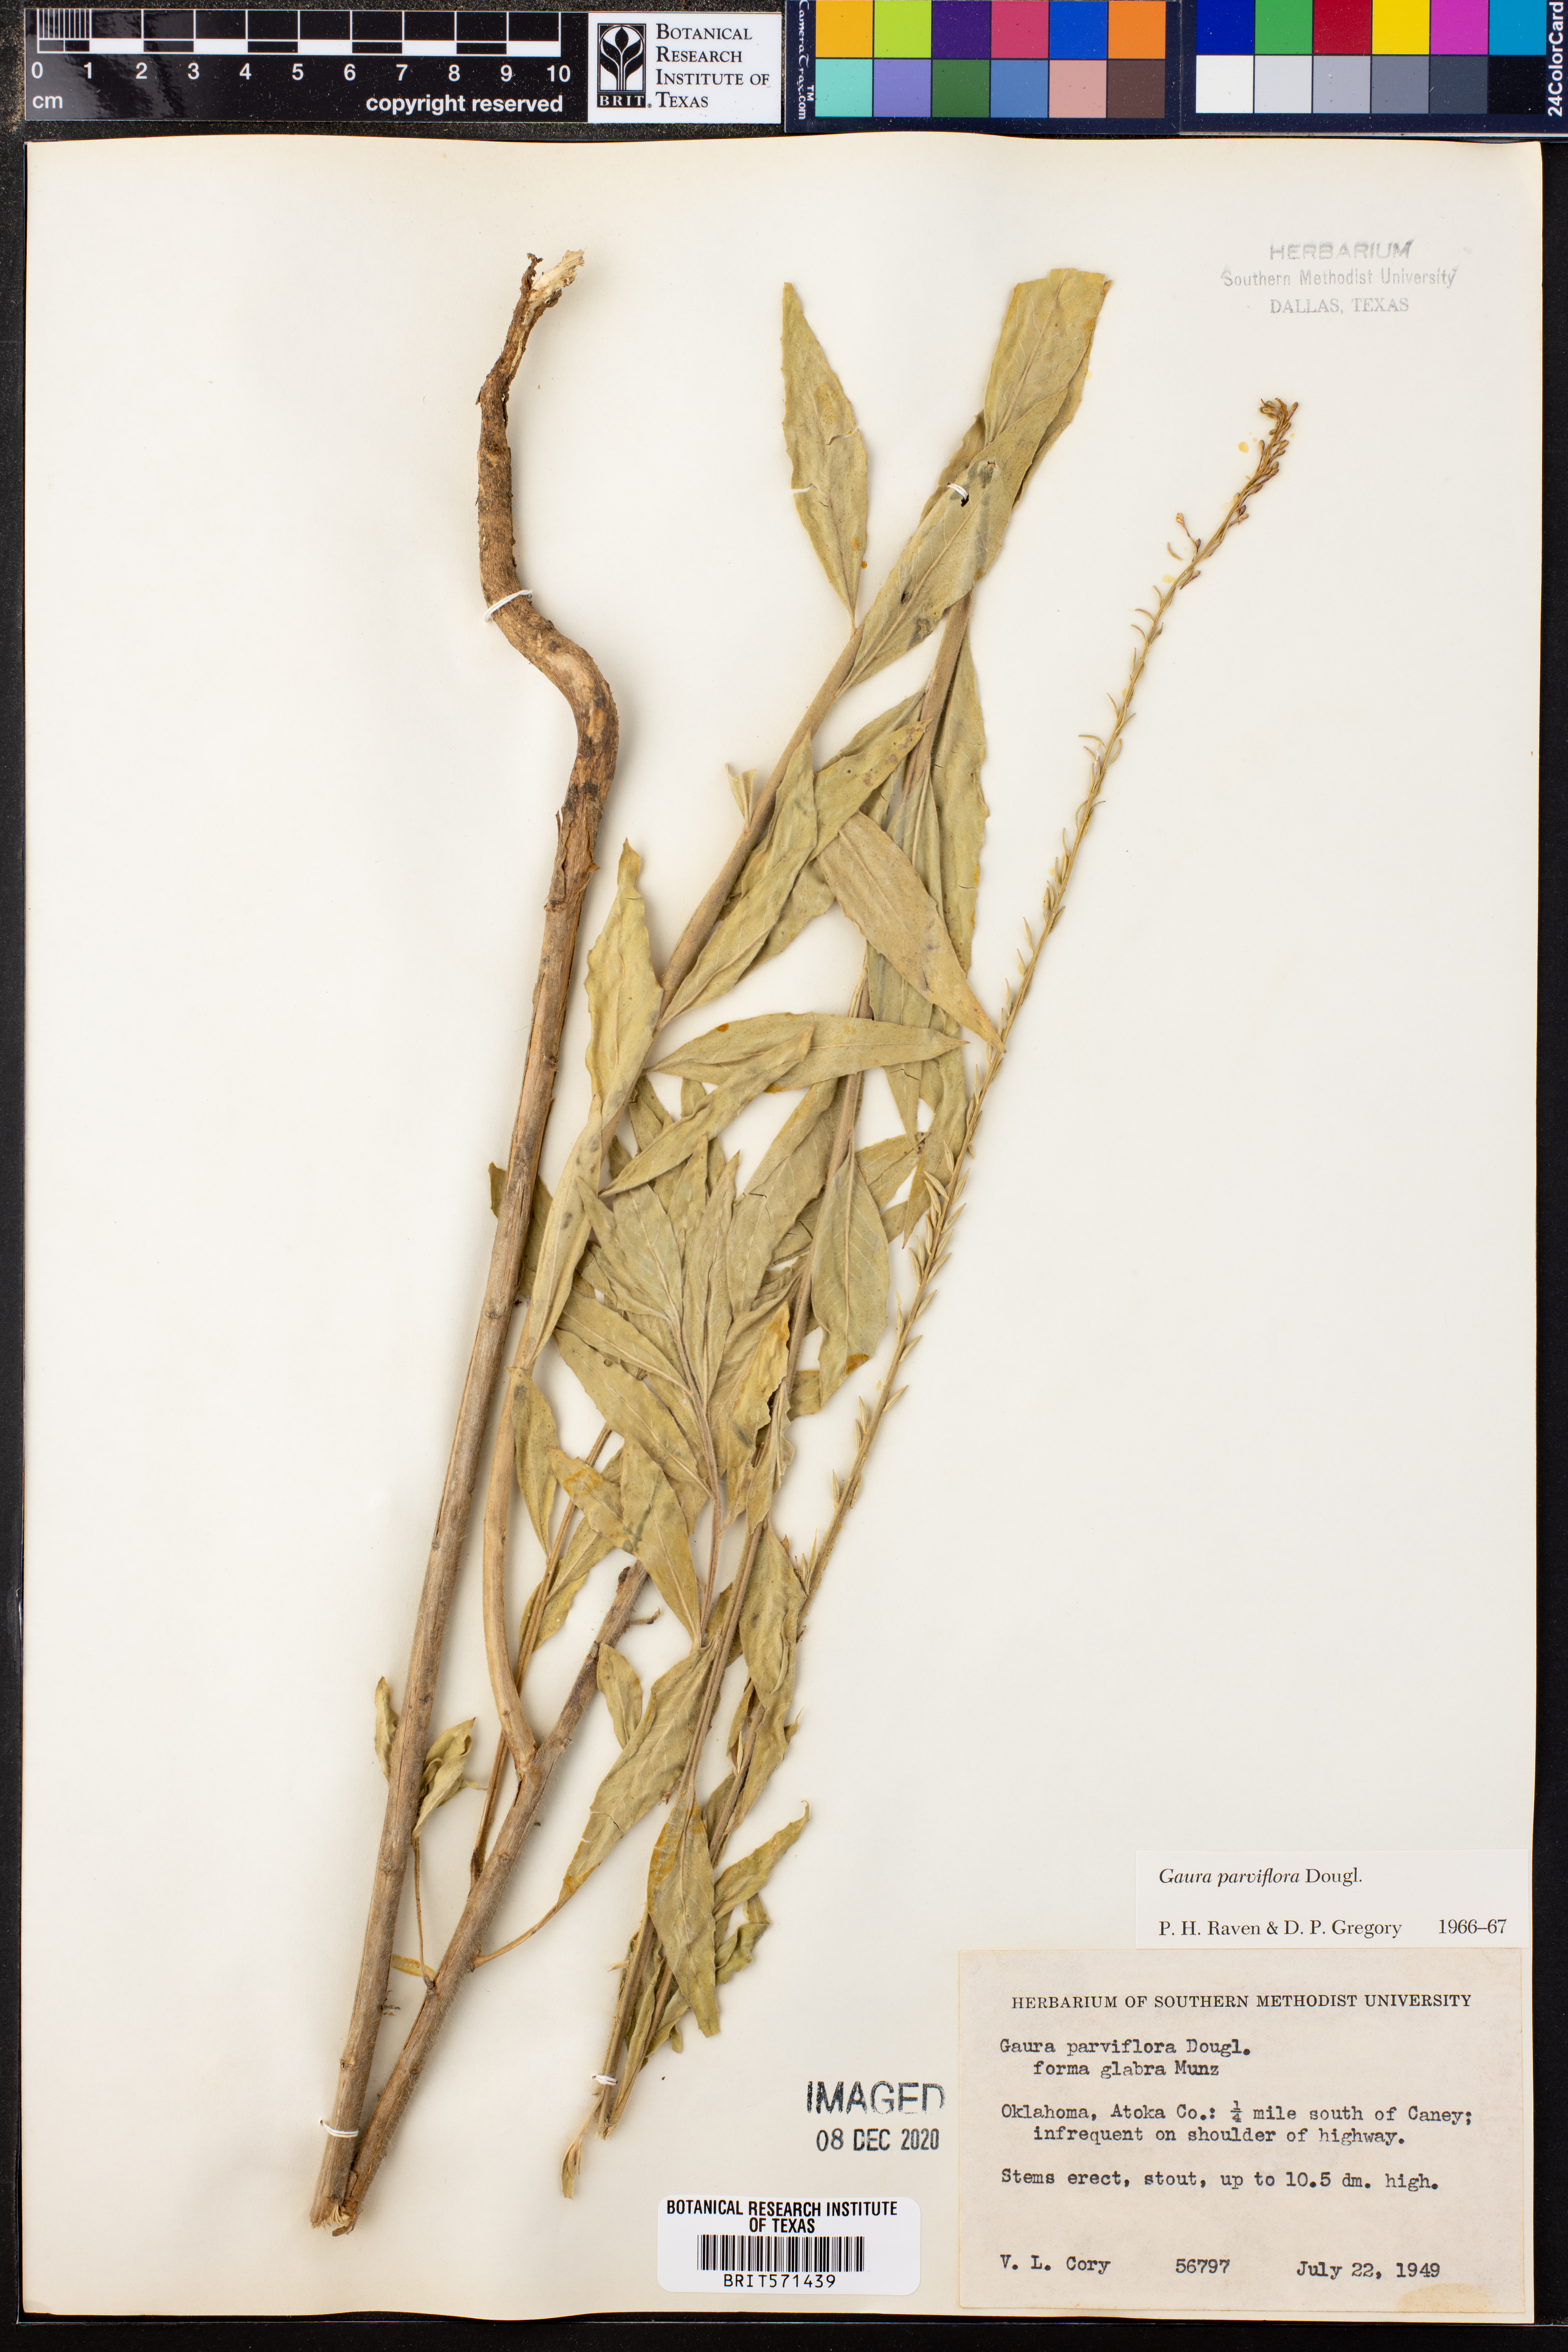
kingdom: Plantae
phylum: Tracheophyta
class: Magnoliopsida
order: Myrtales
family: Onagraceae
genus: Oenothera
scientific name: Oenothera curtiflora
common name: Velvetweed
